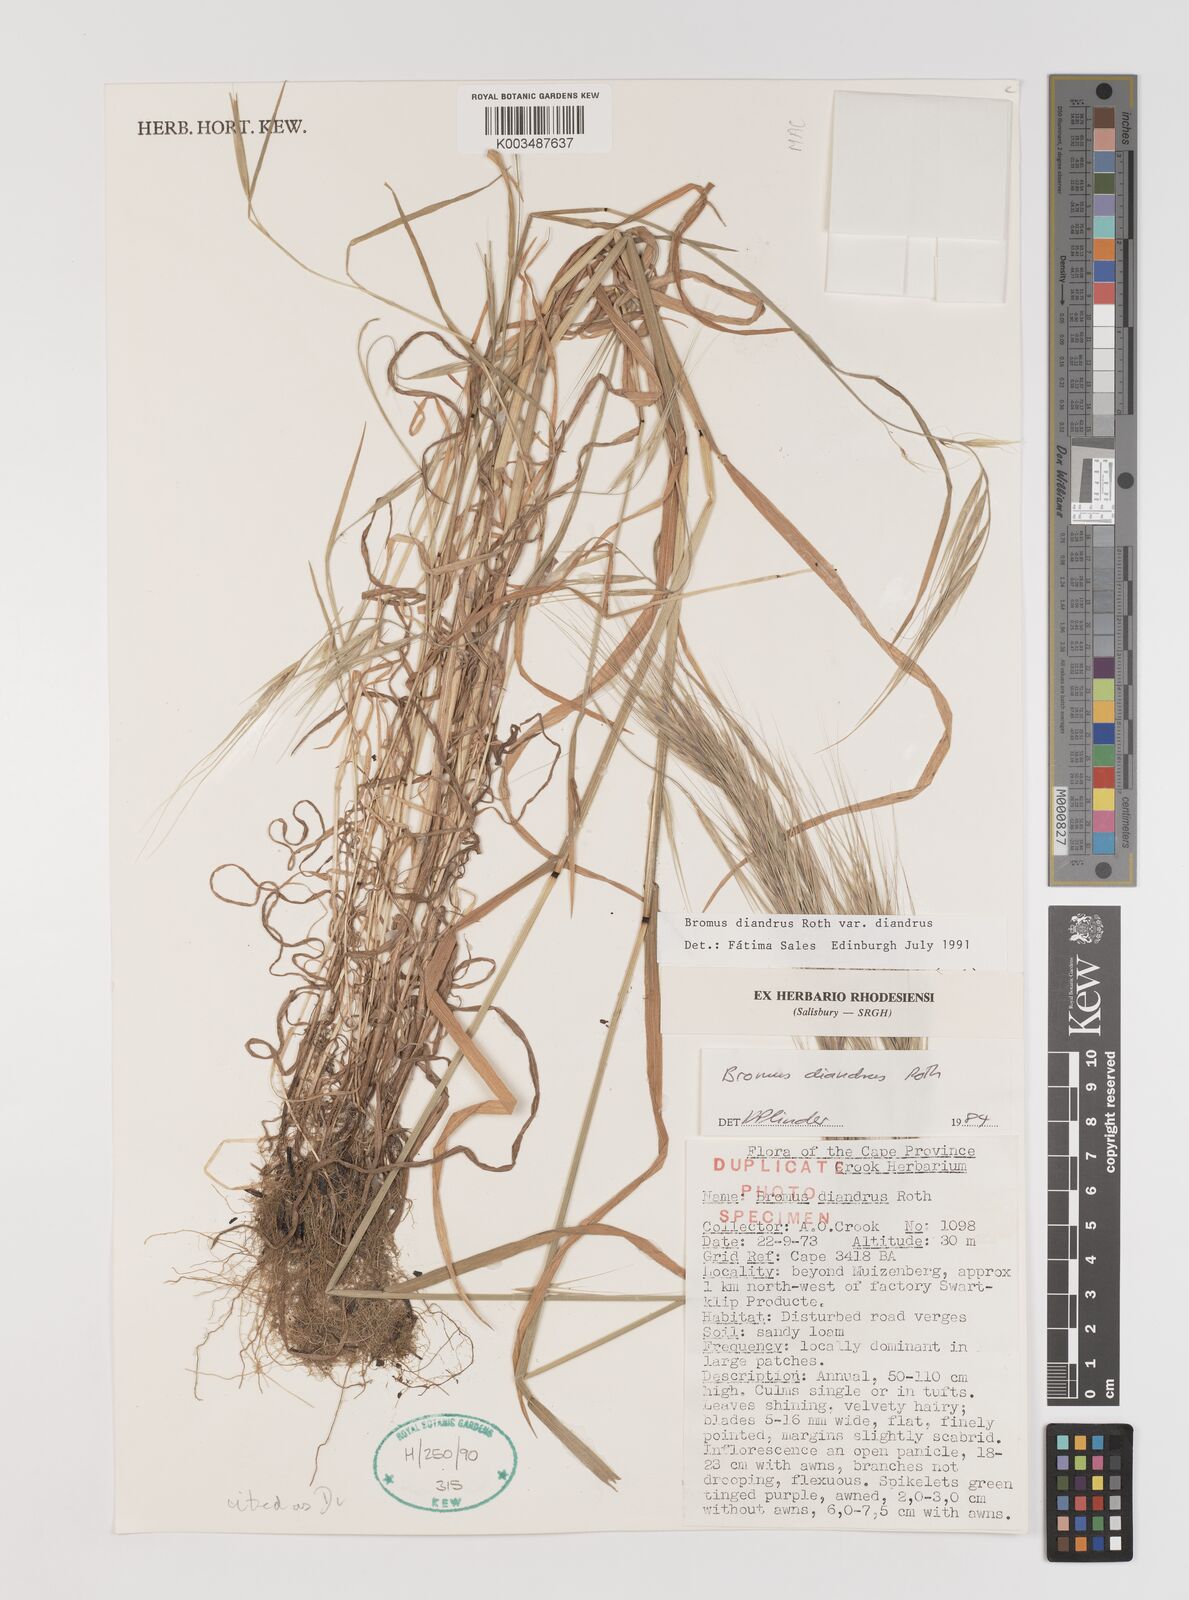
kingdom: Plantae
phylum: Tracheophyta
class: Liliopsida
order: Poales
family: Poaceae
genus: Bromus
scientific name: Bromus diandrus
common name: Ripgut brome
